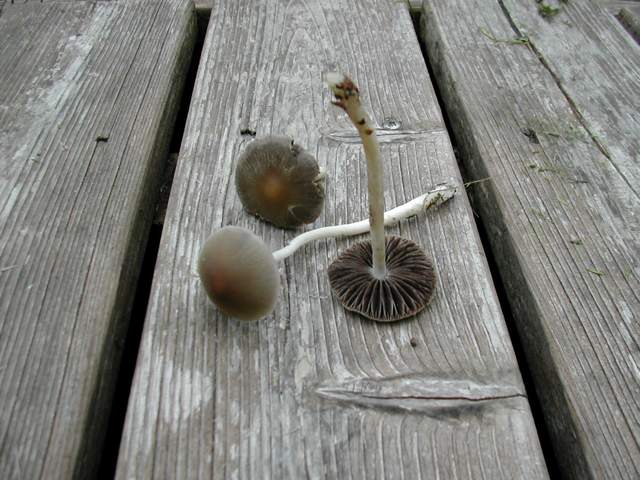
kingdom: Fungi
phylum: Basidiomycota
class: Agaricomycetes
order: Agaricales
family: Psathyrellaceae
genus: Psathyrella
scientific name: Psathyrella spadiceogrisea
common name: gråbrun mørkhat
